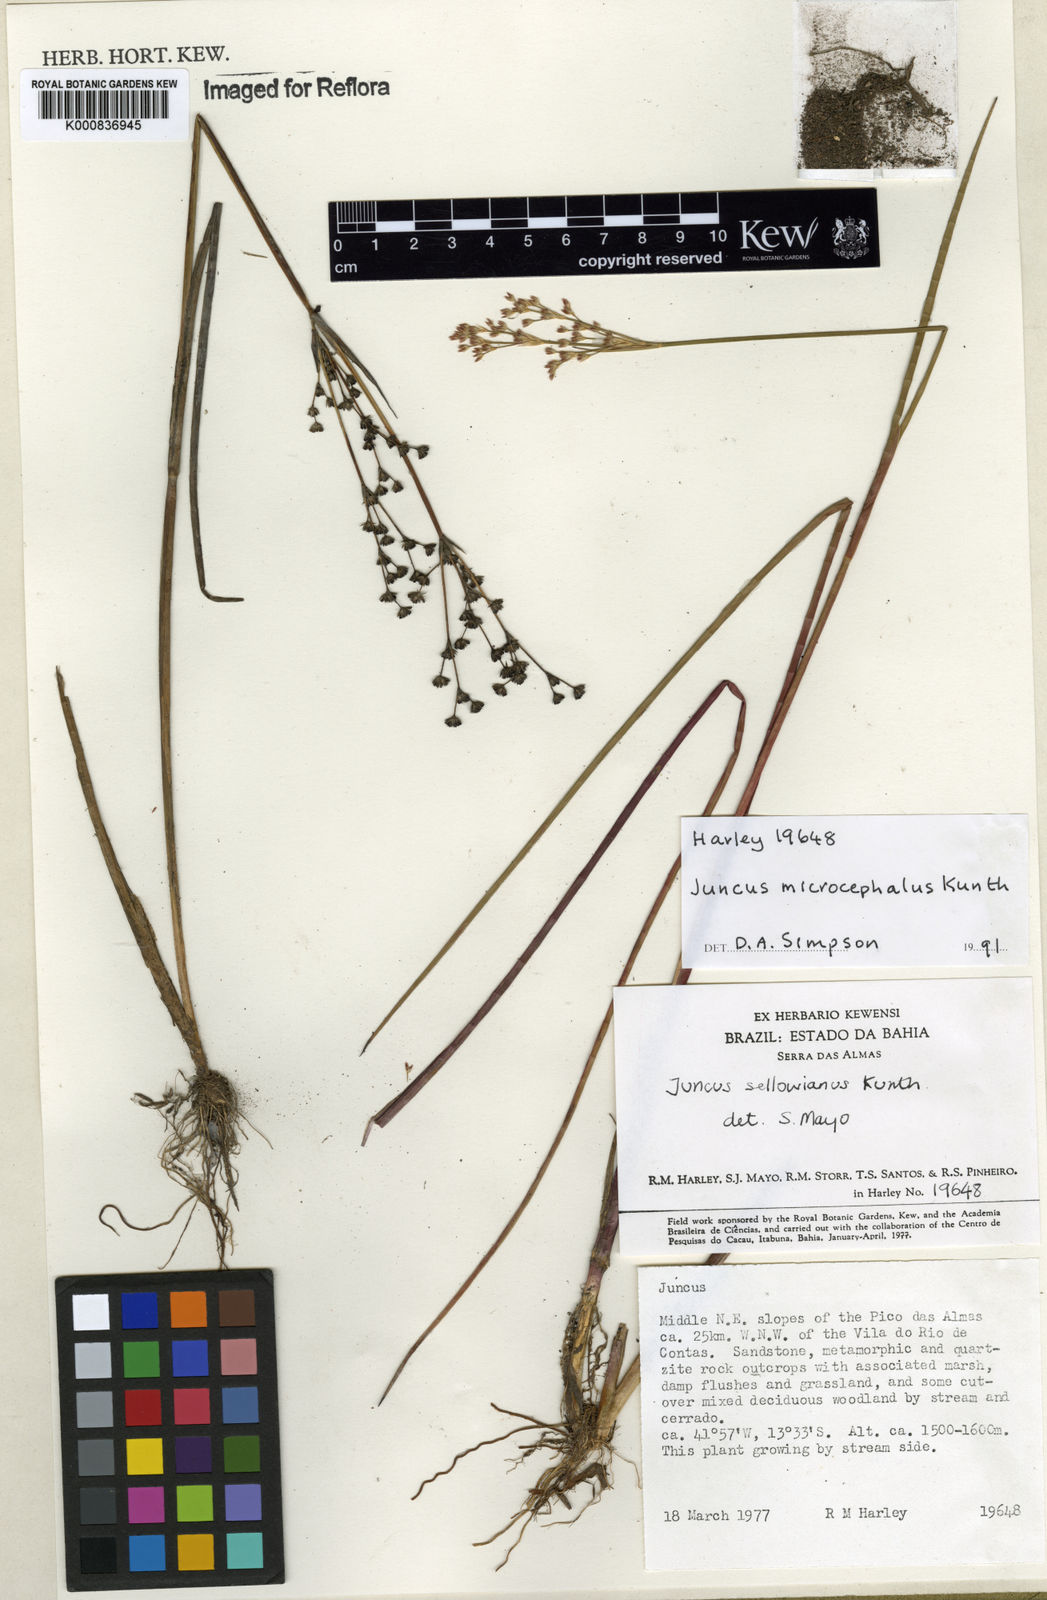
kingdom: Plantae
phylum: Tracheophyta
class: Liliopsida
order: Poales
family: Juncaceae
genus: Juncus
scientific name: Juncus microcephalus
